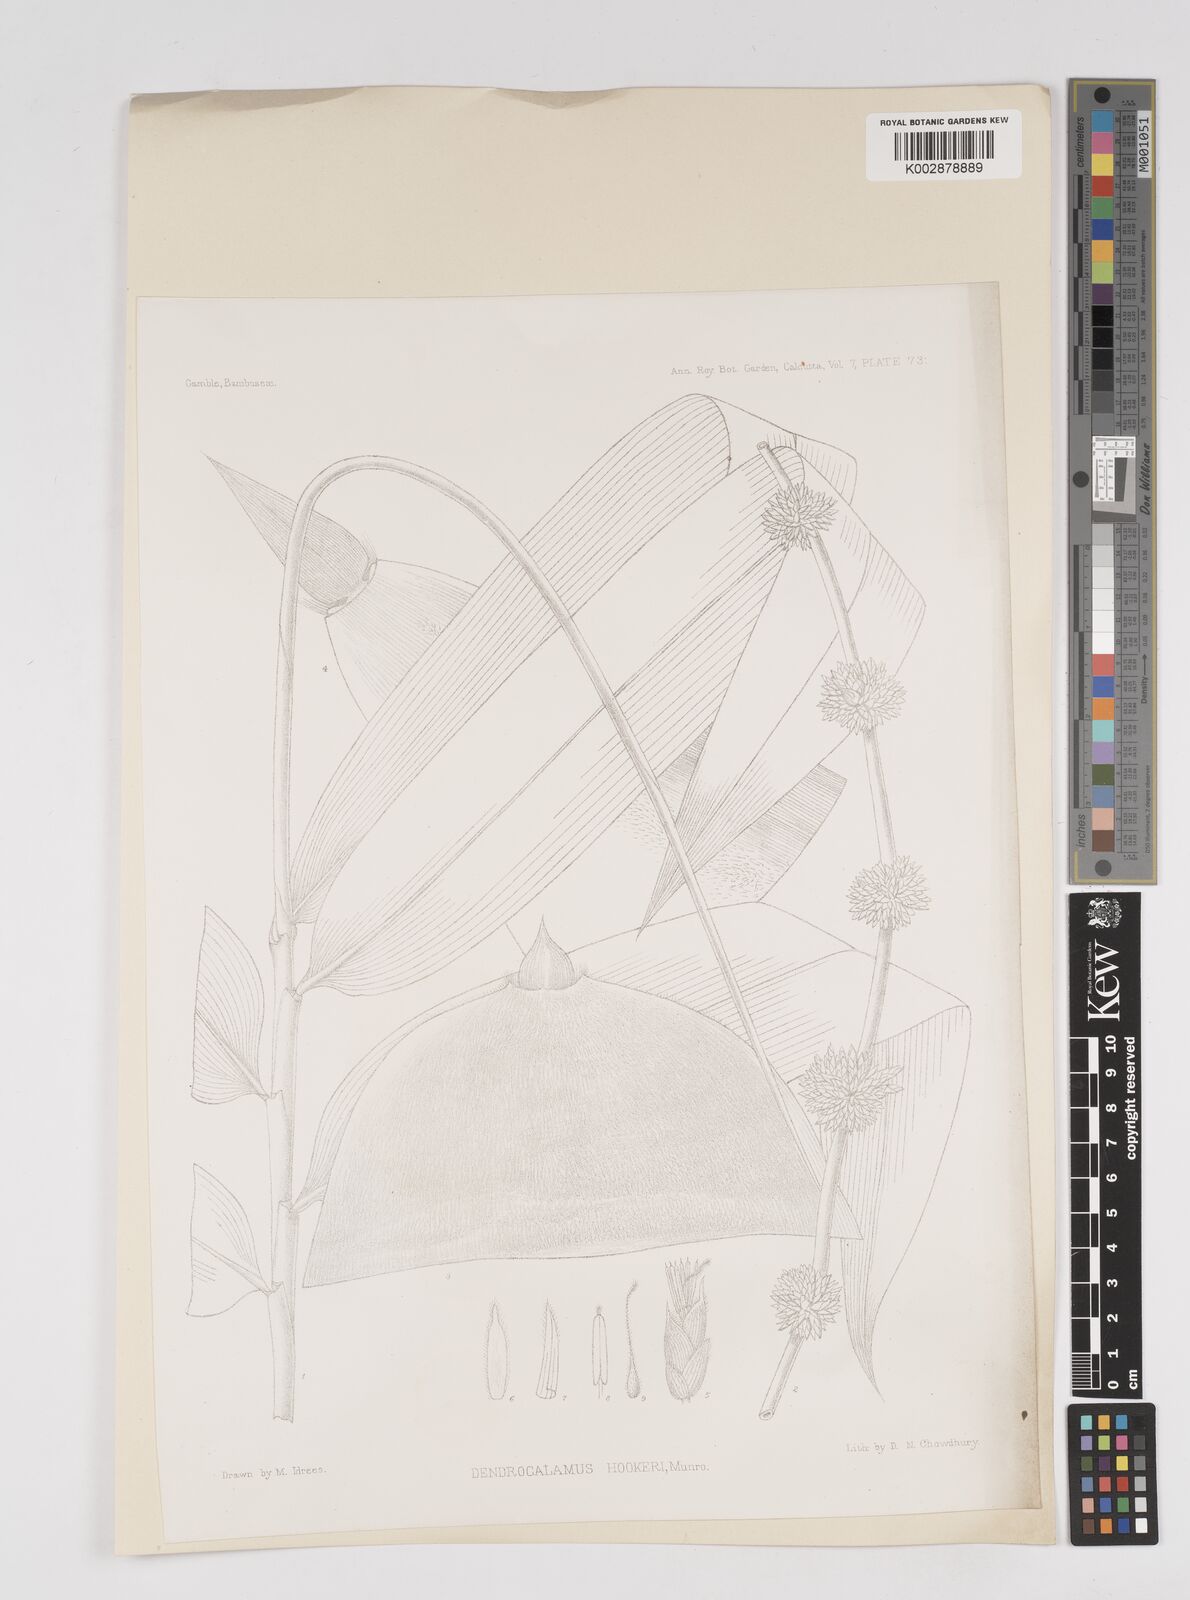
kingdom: Plantae
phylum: Tracheophyta
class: Liliopsida
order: Poales
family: Poaceae
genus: Dendrocalamus
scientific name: Dendrocalamus hookeri
